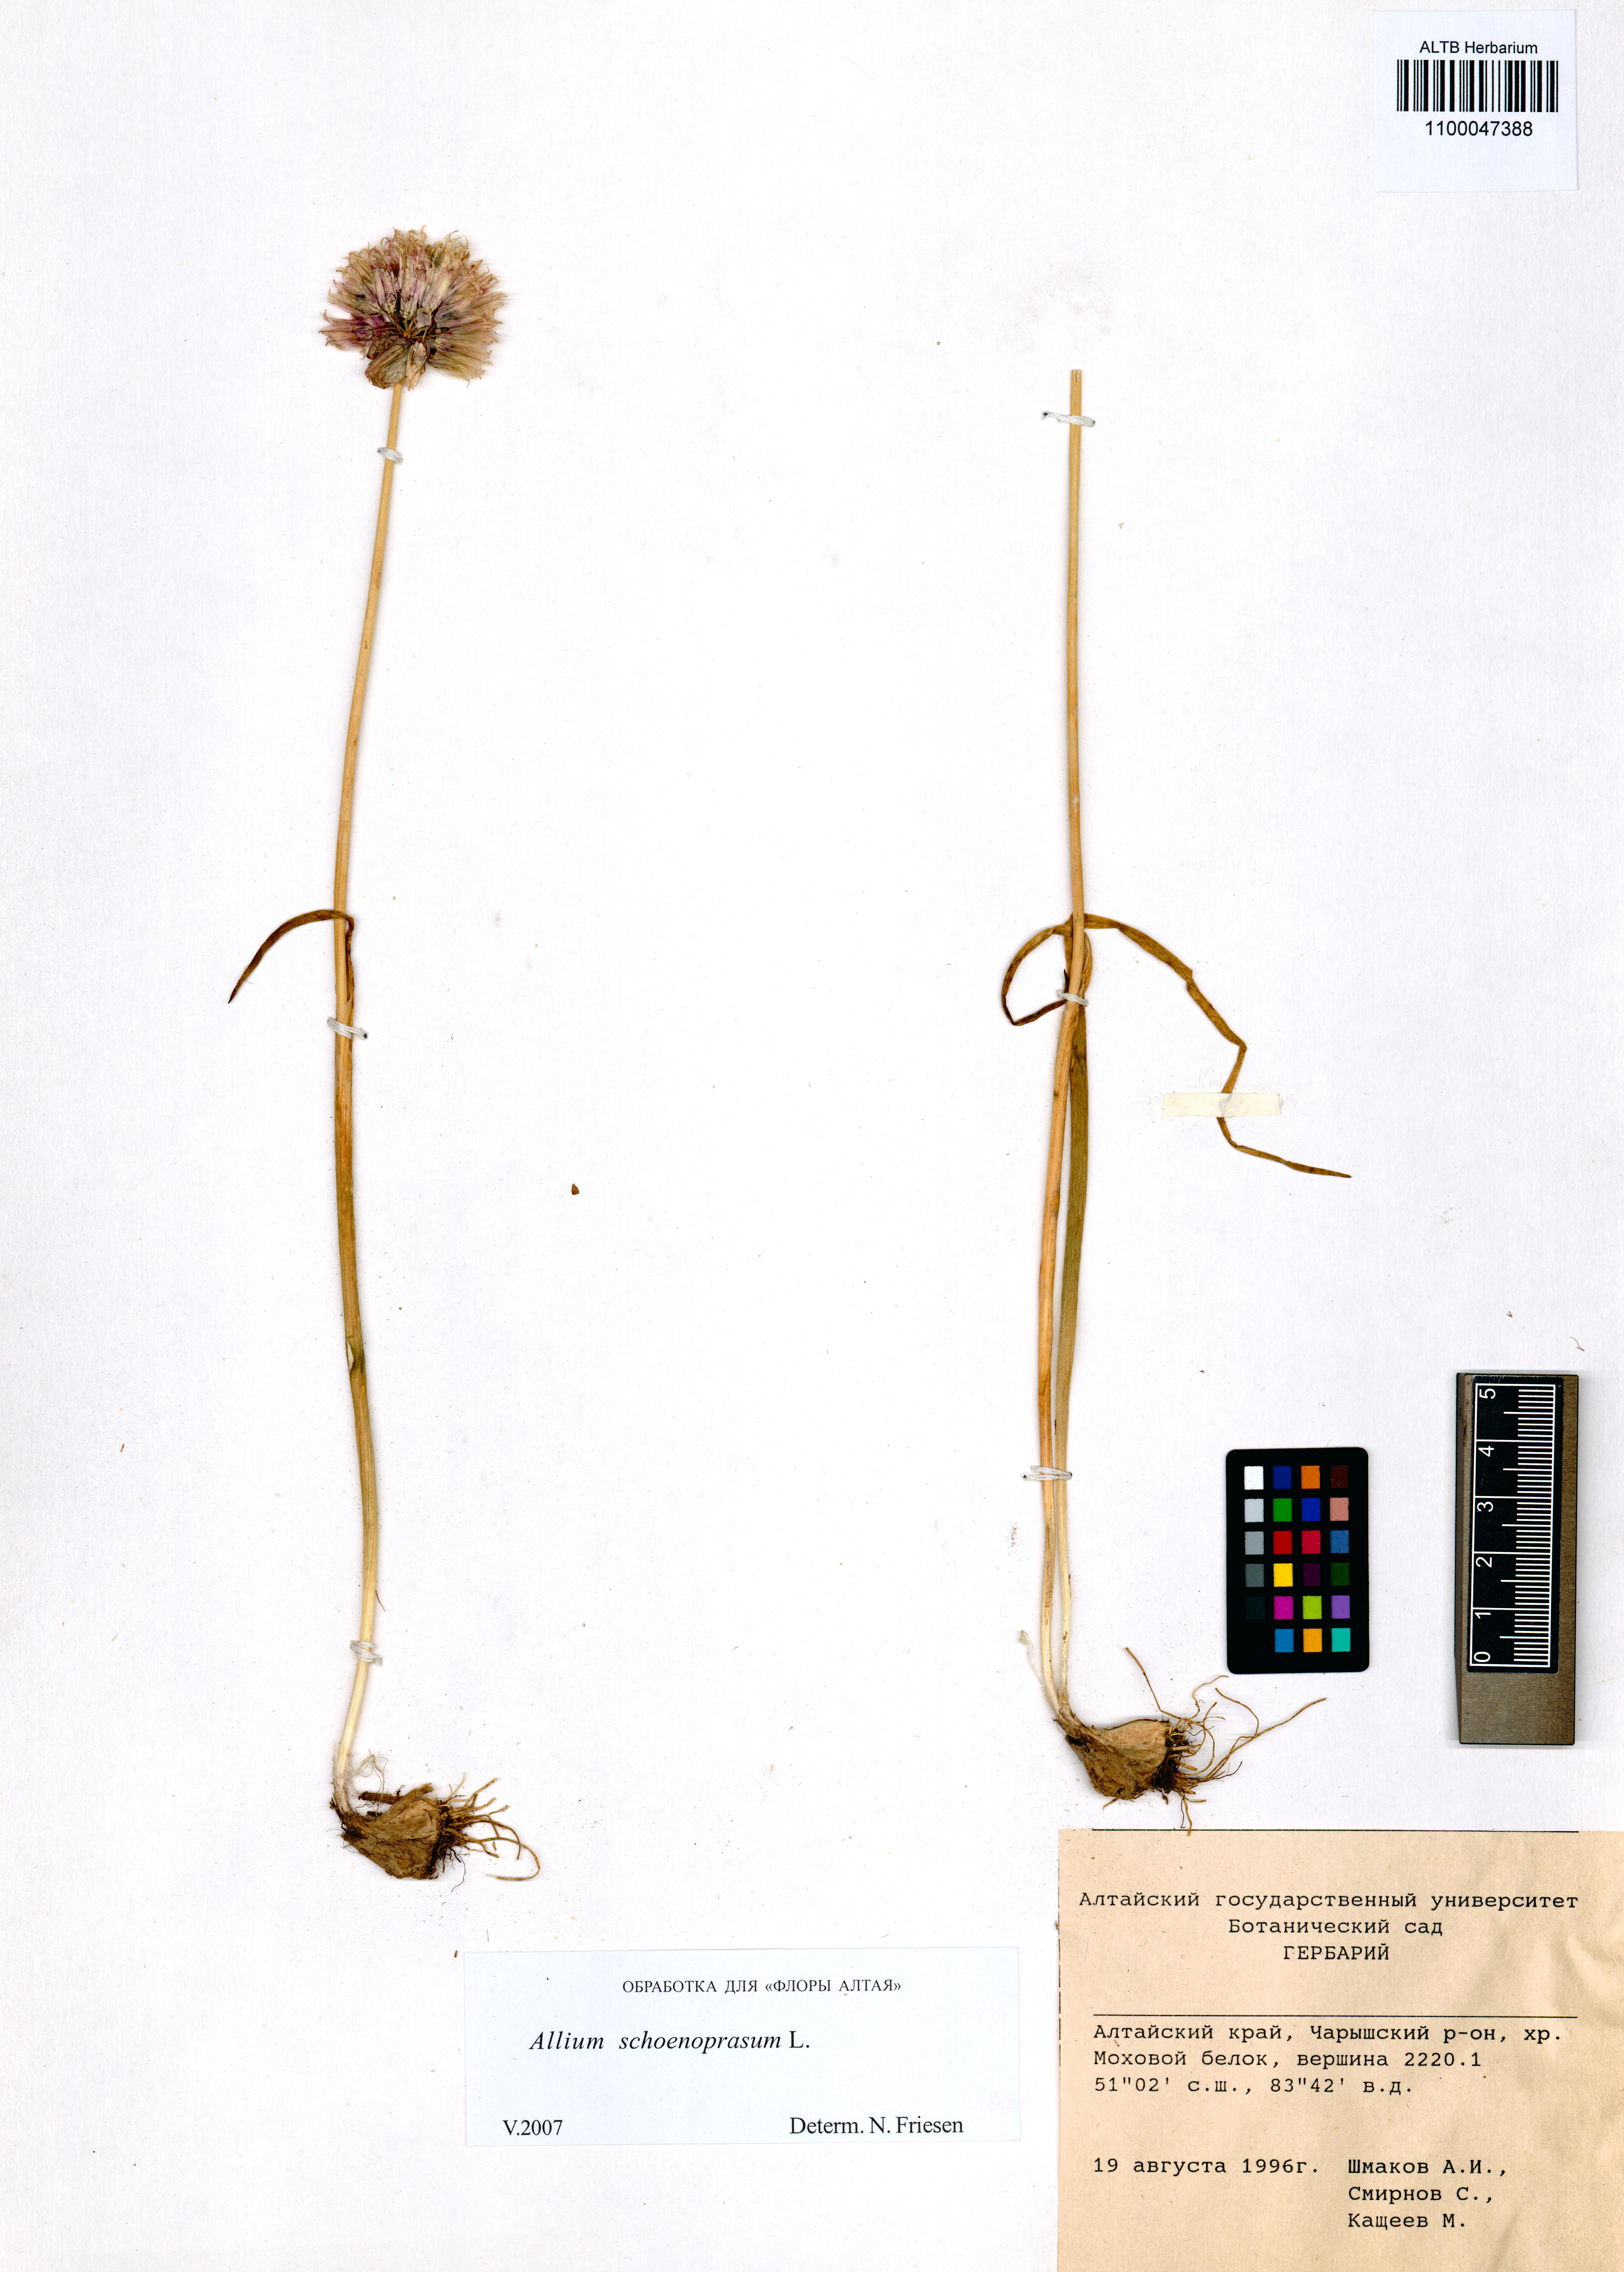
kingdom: Plantae
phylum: Tracheophyta
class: Liliopsida
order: Asparagales
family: Amaryllidaceae
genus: Allium
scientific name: Allium schoenoprasum
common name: Chives
